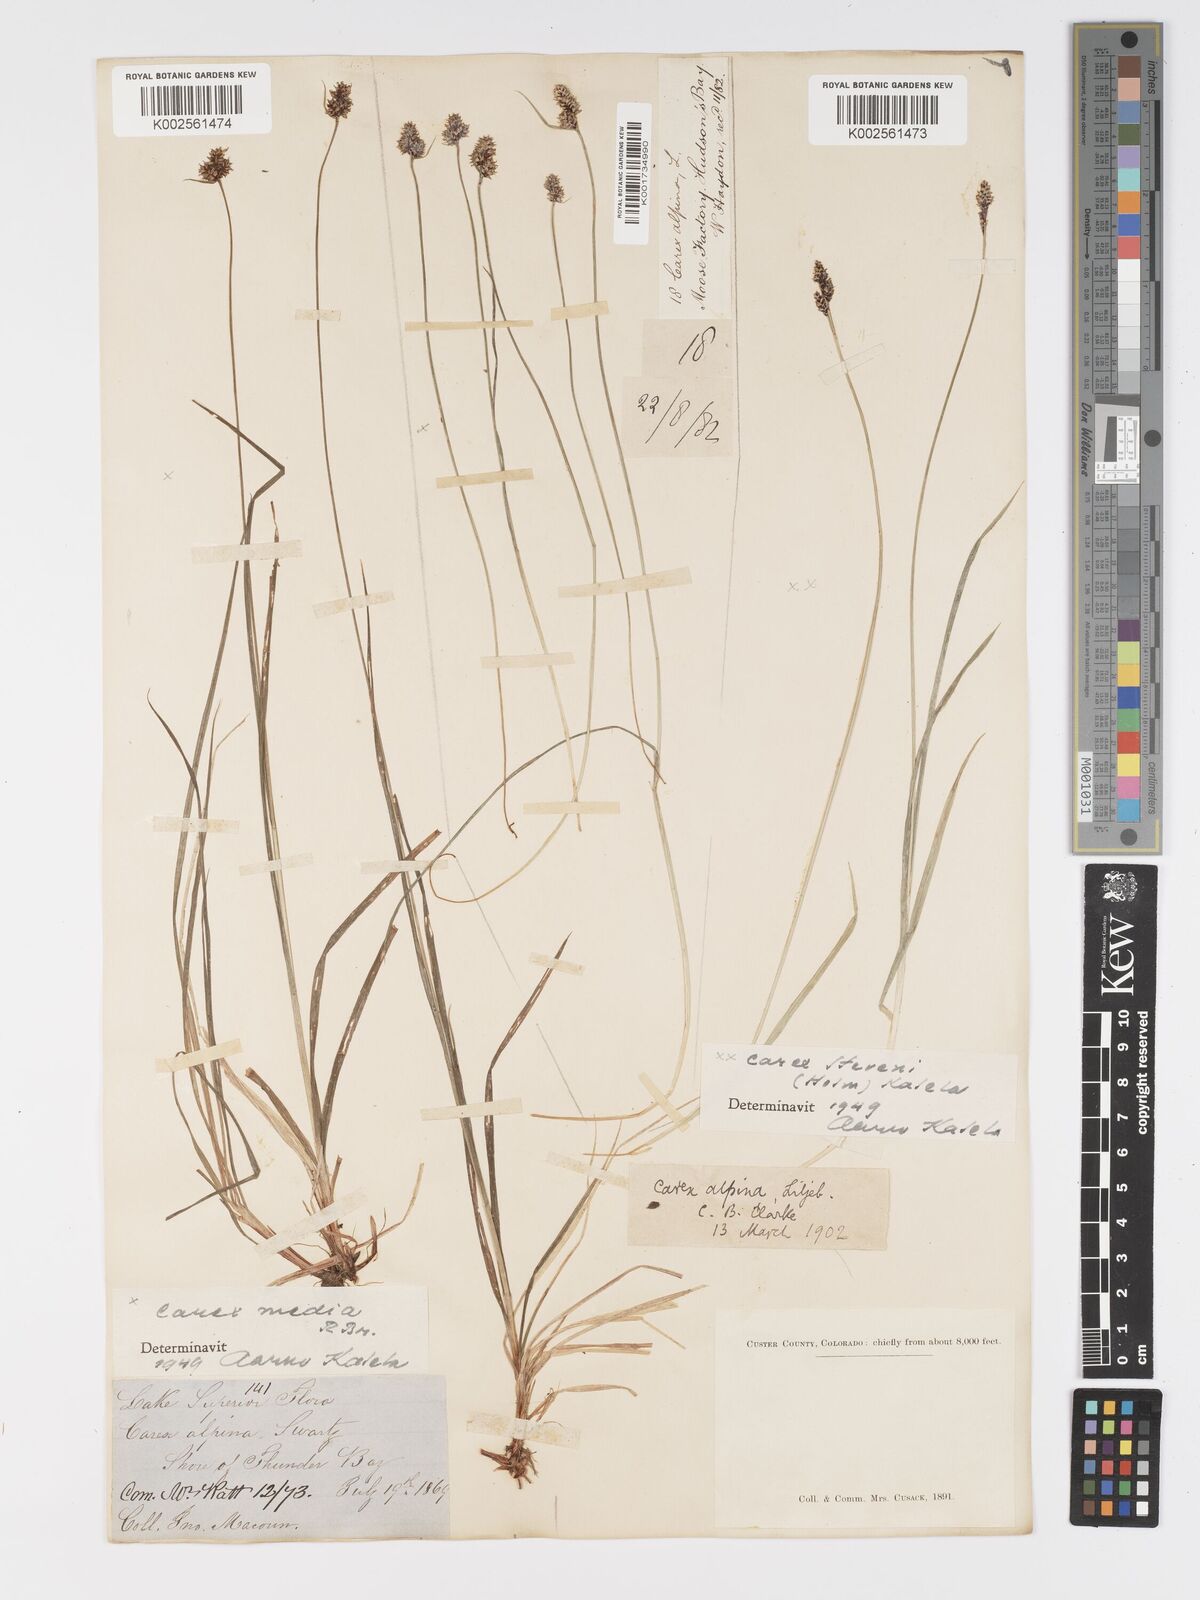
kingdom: Plantae
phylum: Tracheophyta
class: Liliopsida
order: Poales
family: Cyperaceae
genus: Carex
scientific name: Carex stevenii
